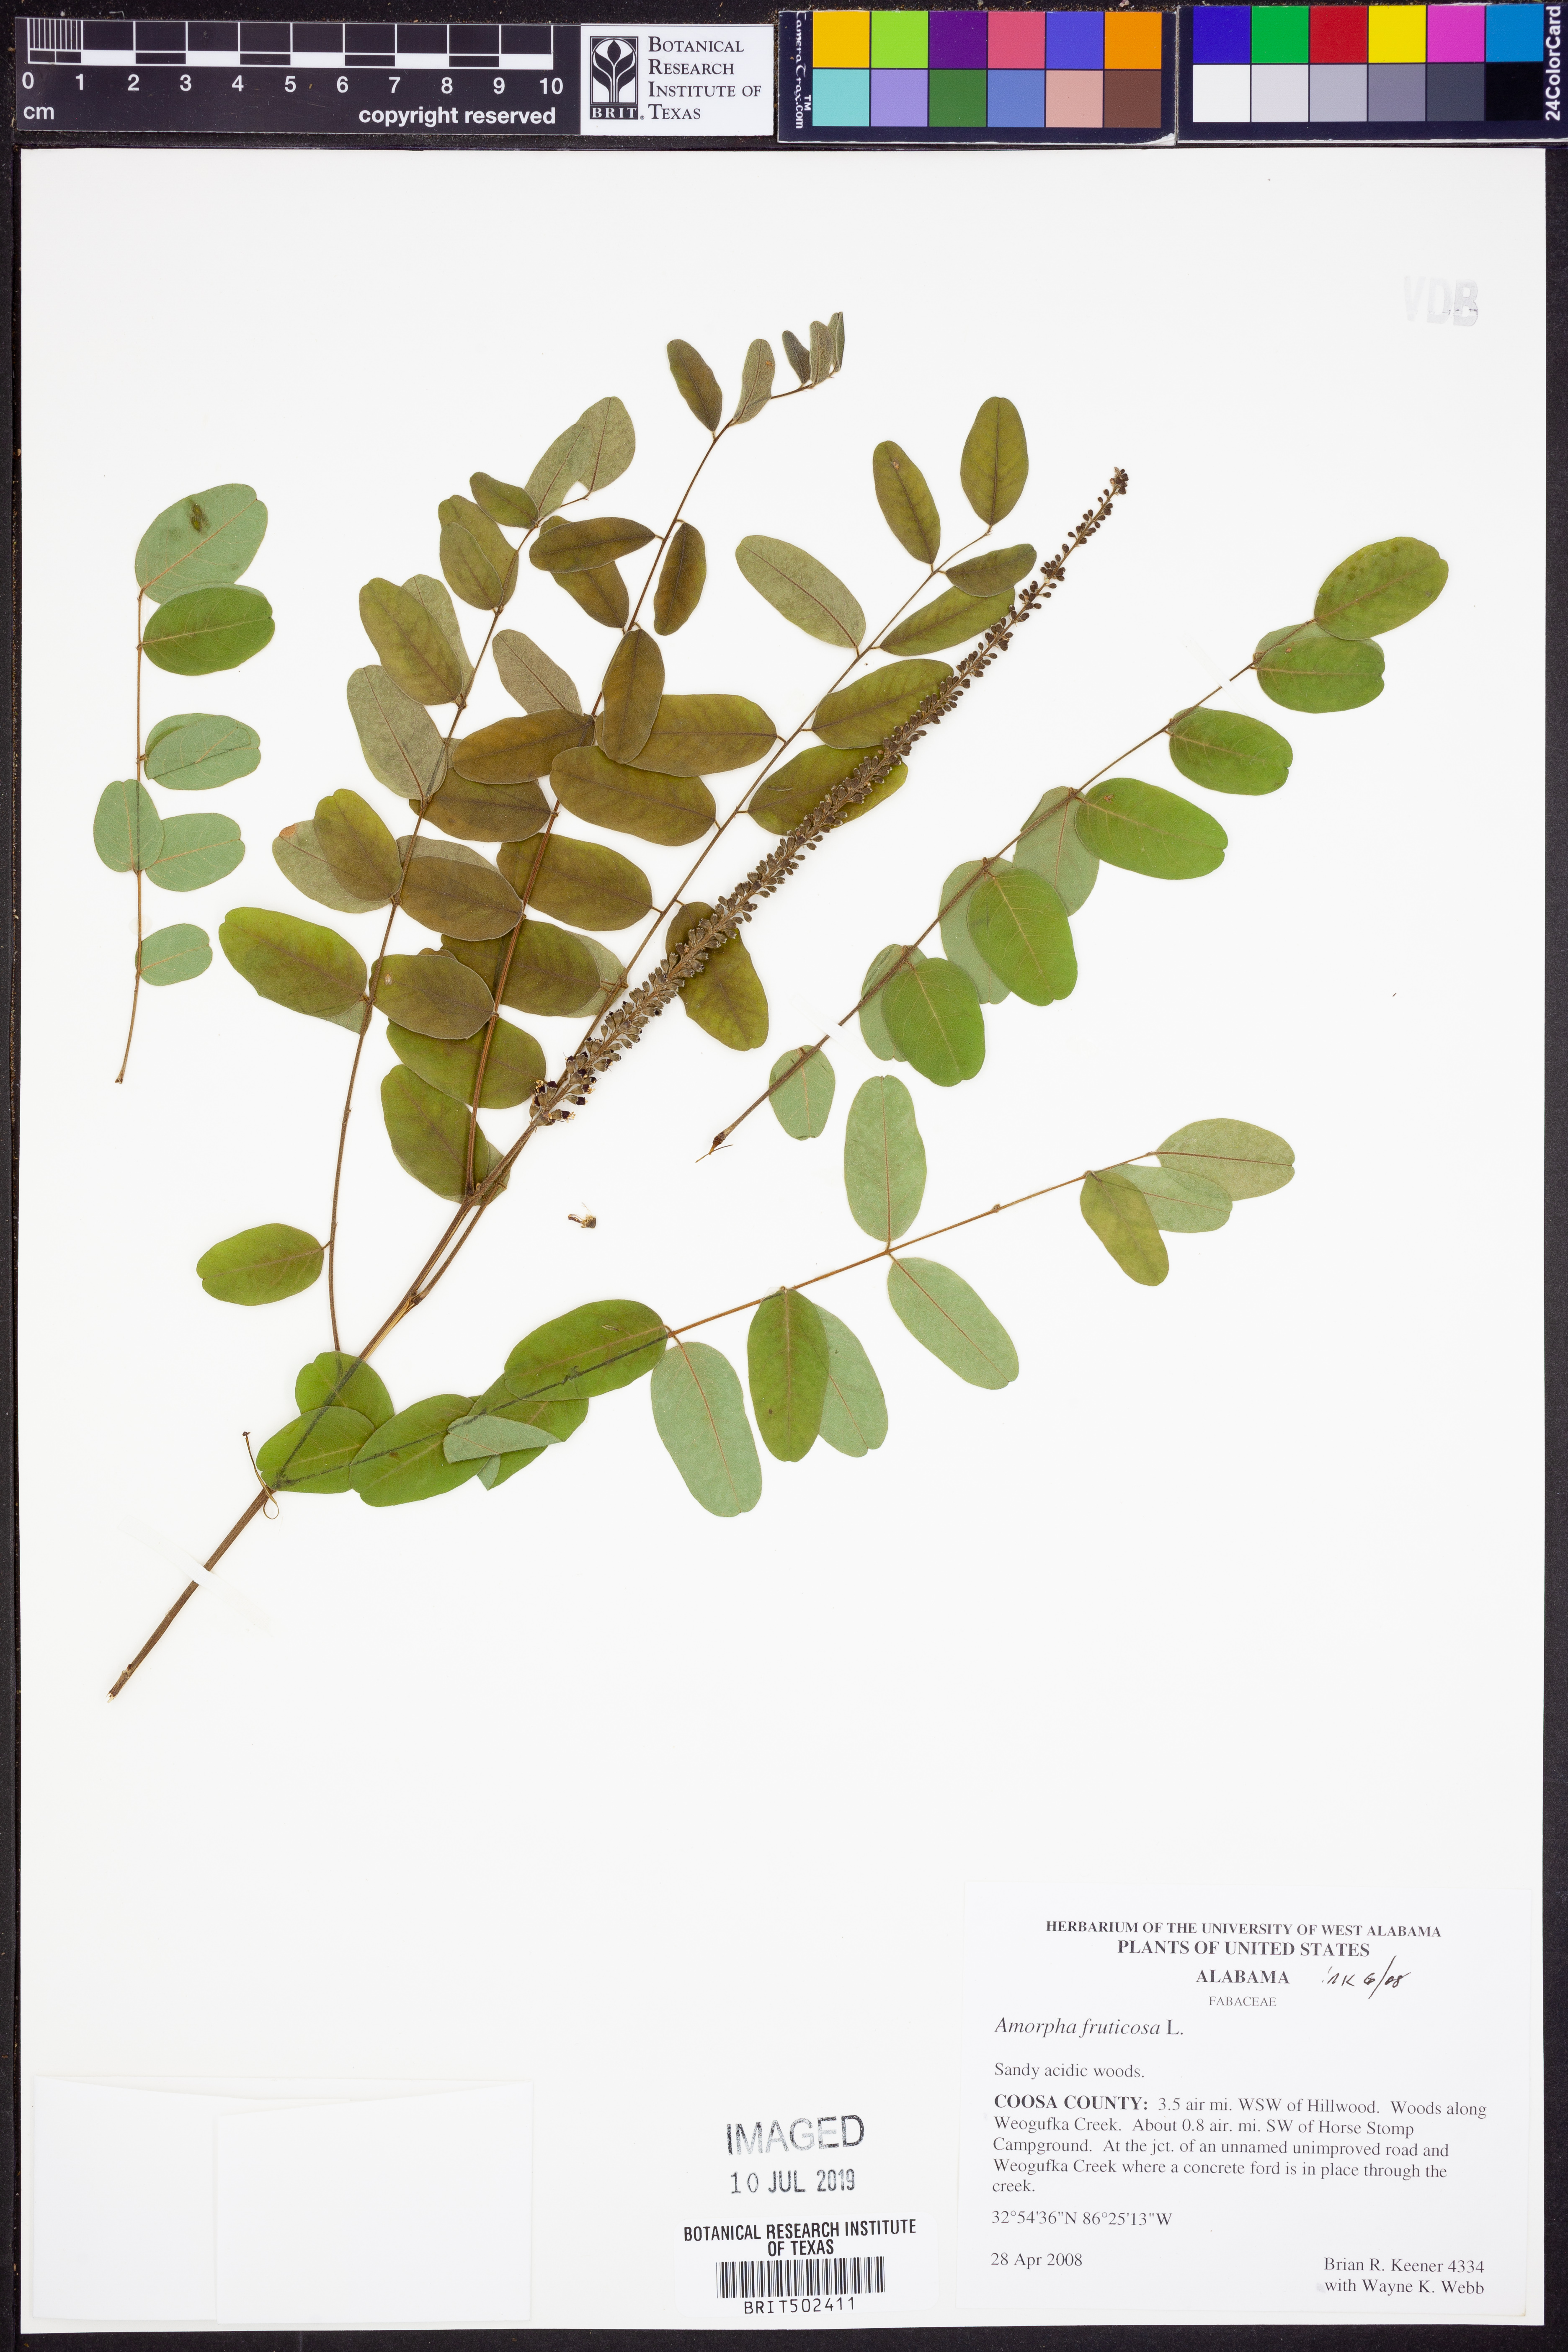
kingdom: Plantae
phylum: Tracheophyta
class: Magnoliopsida
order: Fabales
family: Fabaceae
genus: Amorpha
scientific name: Amorpha fruticosa
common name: False indigo
